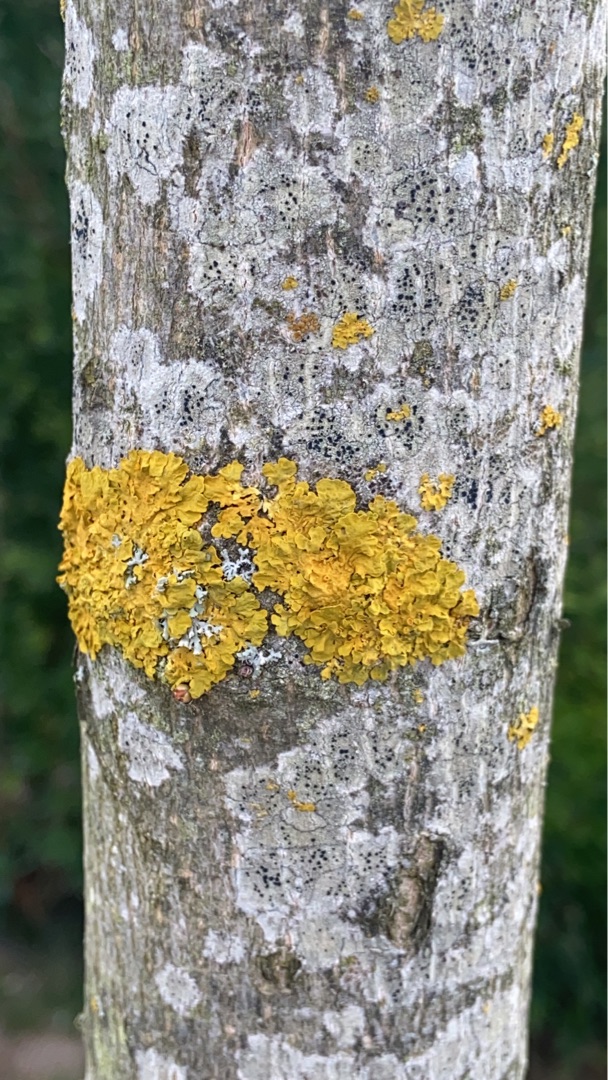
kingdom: Fungi
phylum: Ascomycota
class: Lecanoromycetes
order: Teloschistales
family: Teloschistaceae
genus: Xanthoria
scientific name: Xanthoria parietina
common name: Almindelig væggelav
